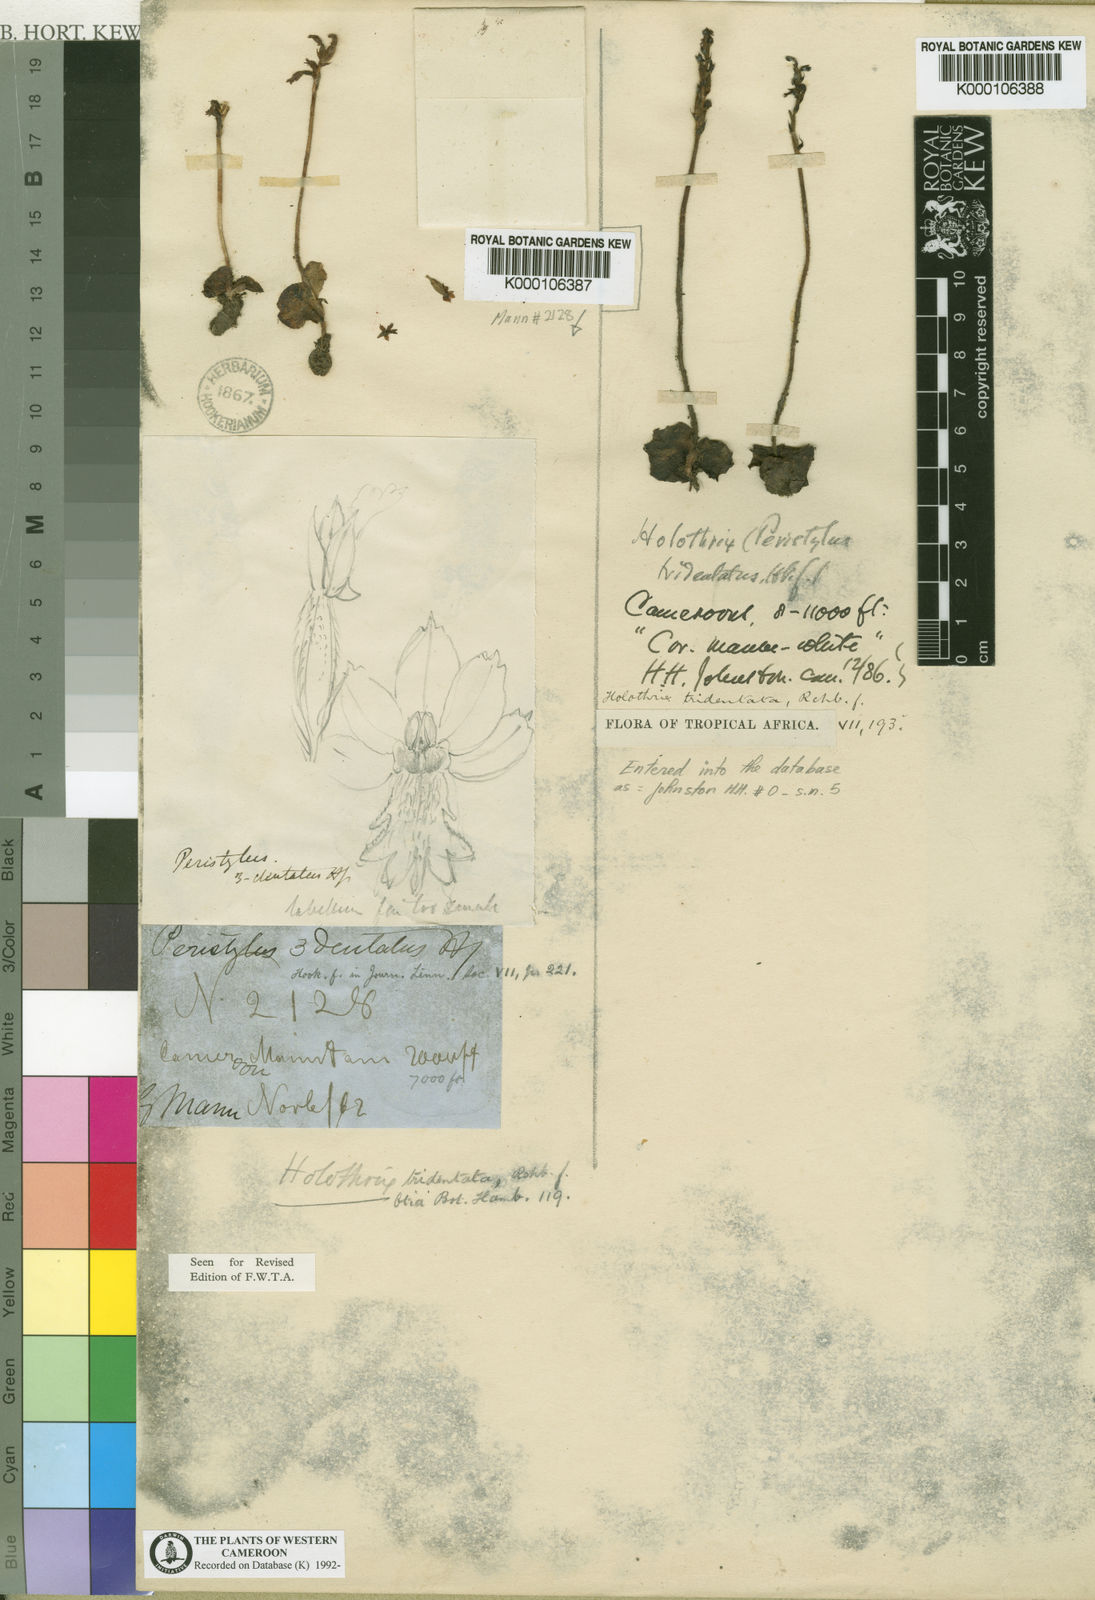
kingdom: Plantae
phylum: Tracheophyta
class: Liliopsida
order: Asparagales
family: Orchidaceae
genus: Holothrix
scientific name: Holothrix tridentata
